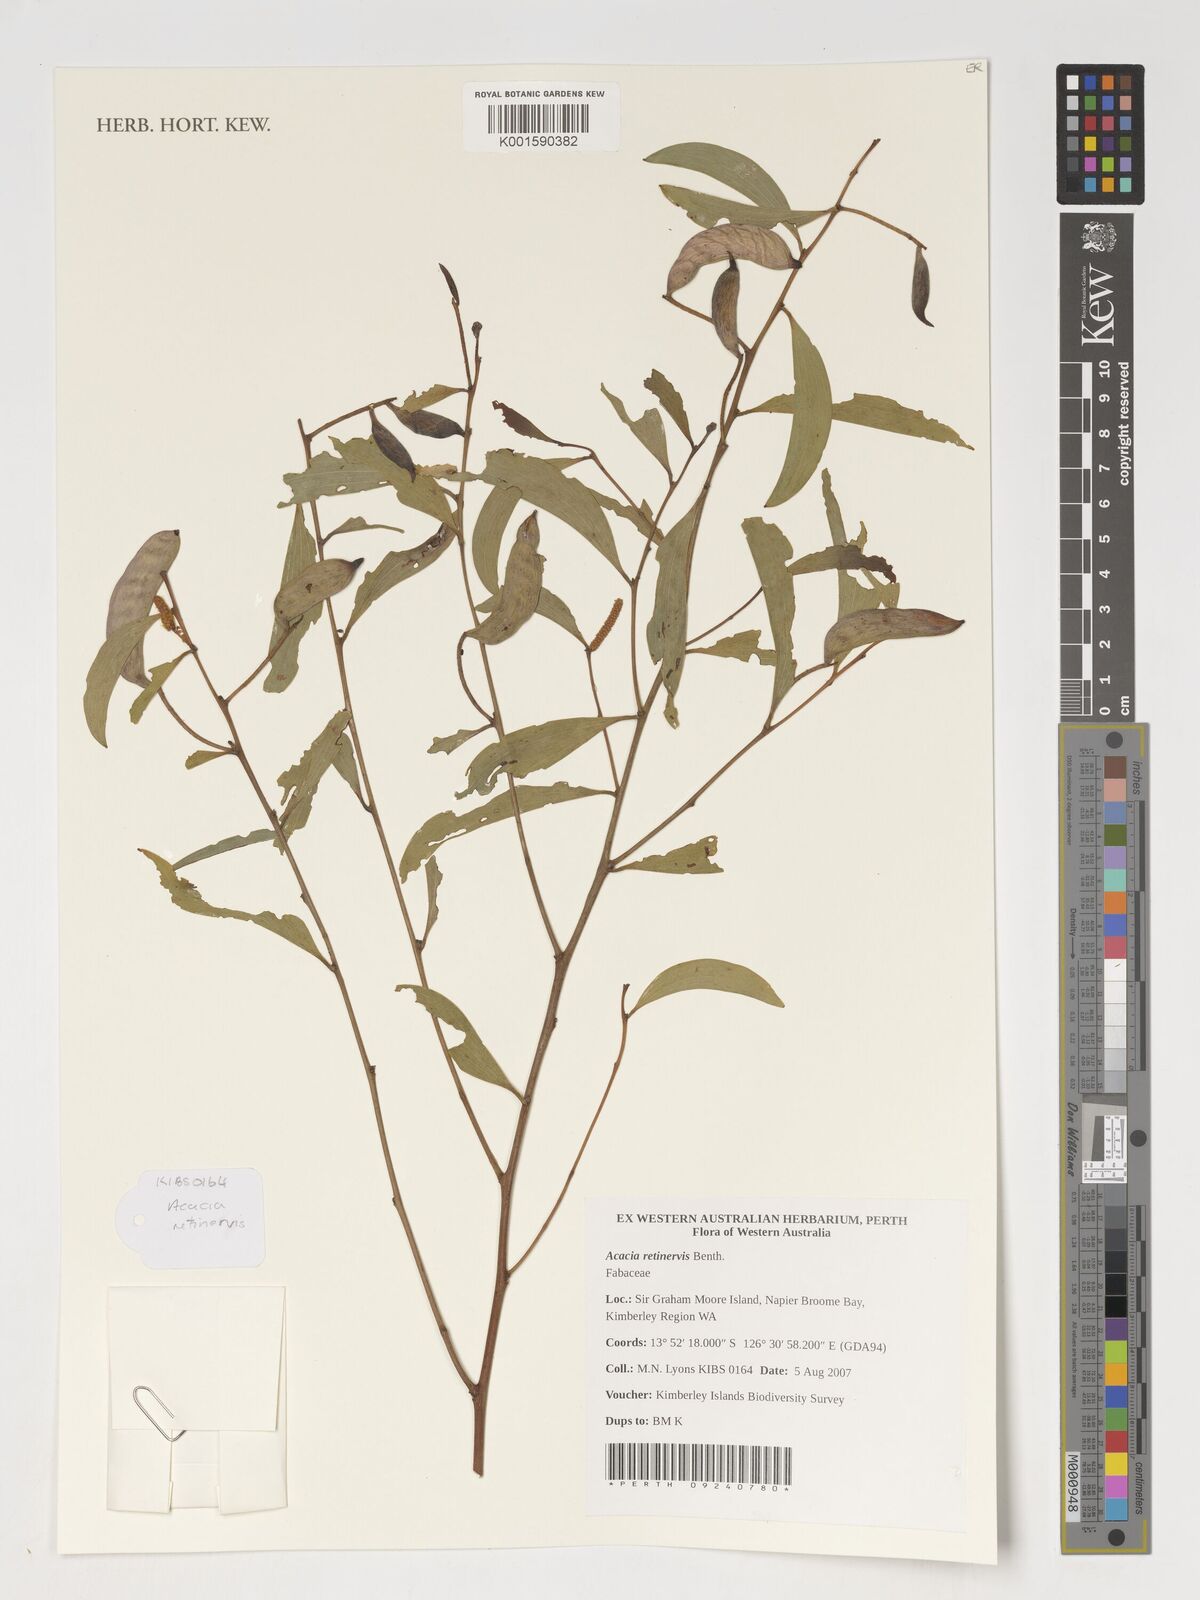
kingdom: Plantae
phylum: Tracheophyta
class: Magnoliopsida
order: Fabales
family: Fabaceae
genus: Acacia
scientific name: Acacia retinervis
